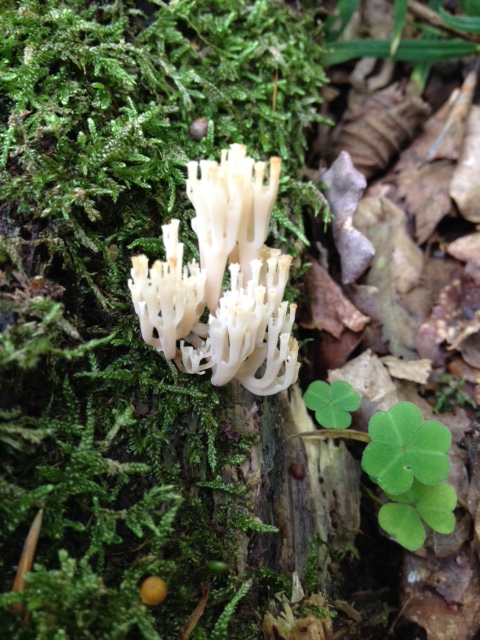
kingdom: Fungi
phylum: Basidiomycota
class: Agaricomycetes
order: Russulales
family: Auriscalpiaceae
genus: Artomyces
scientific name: Artomyces pyxidatus
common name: kandelabersvamp
